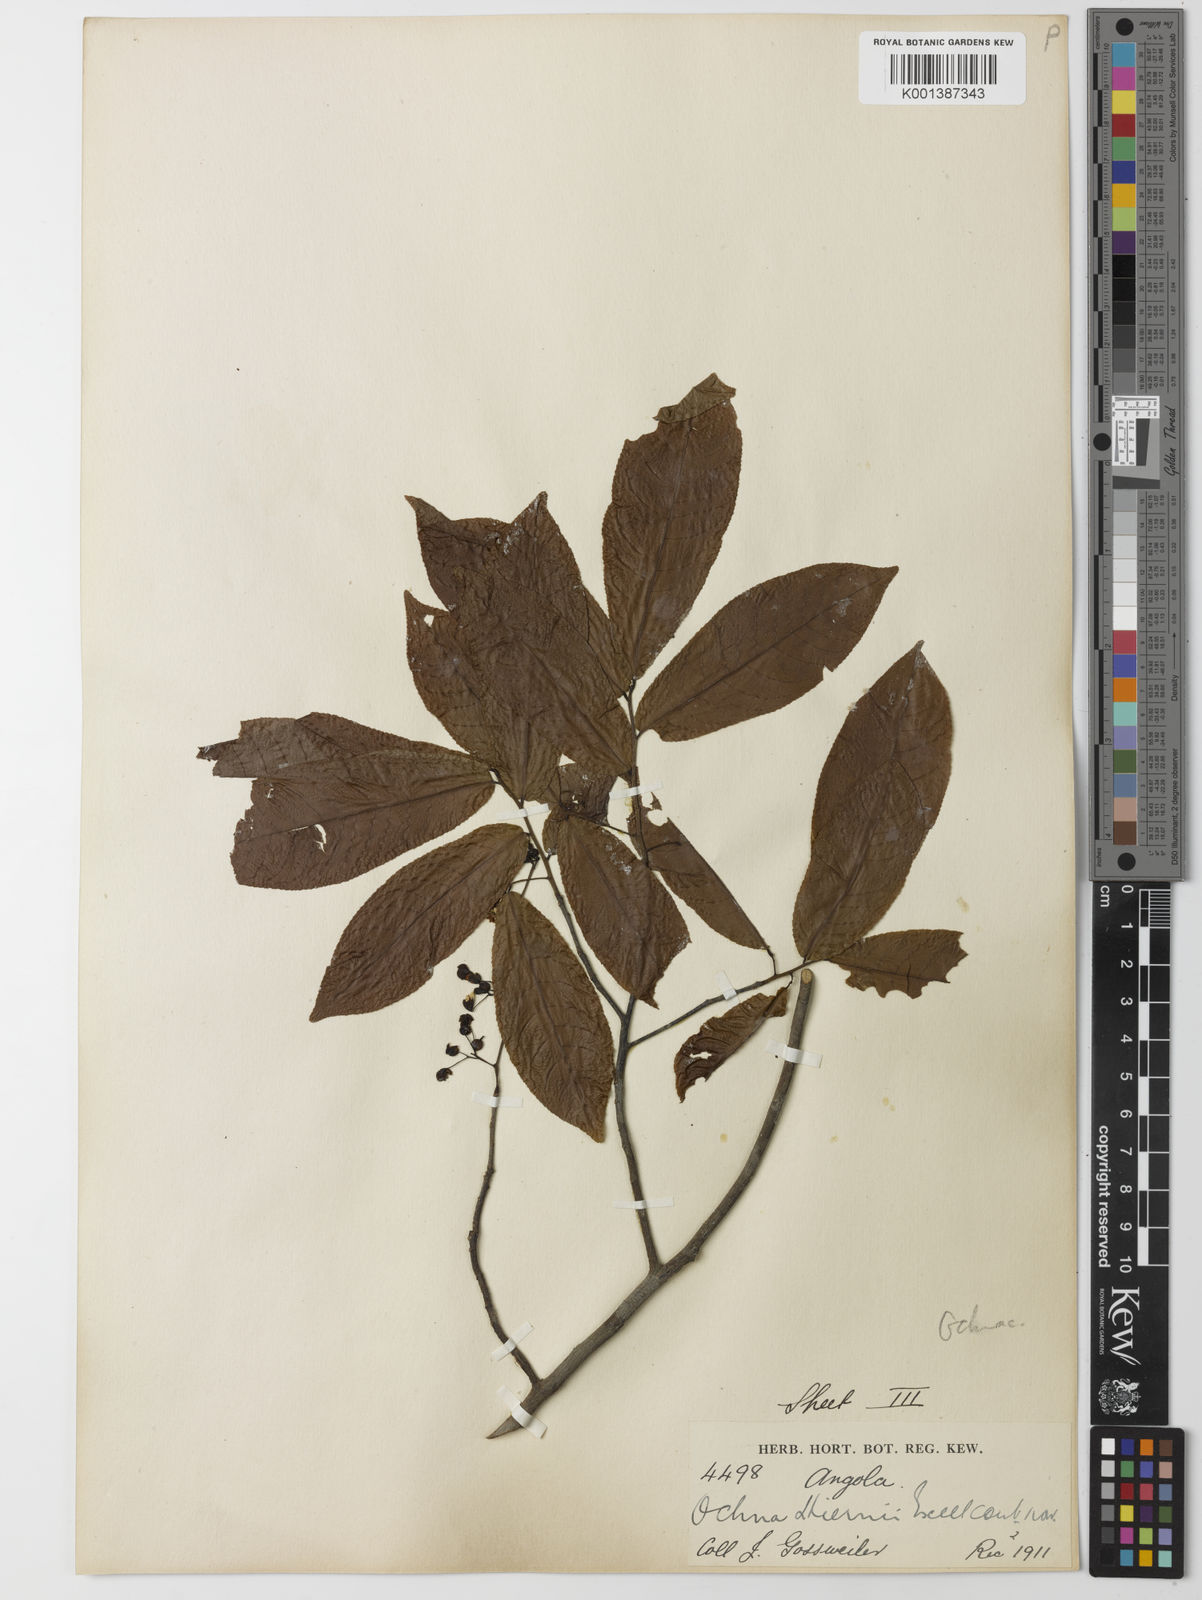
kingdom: Plantae
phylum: Tracheophyta
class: Magnoliopsida
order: Malpighiales
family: Ochnaceae
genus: Ochna
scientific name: Ochna membranacea
